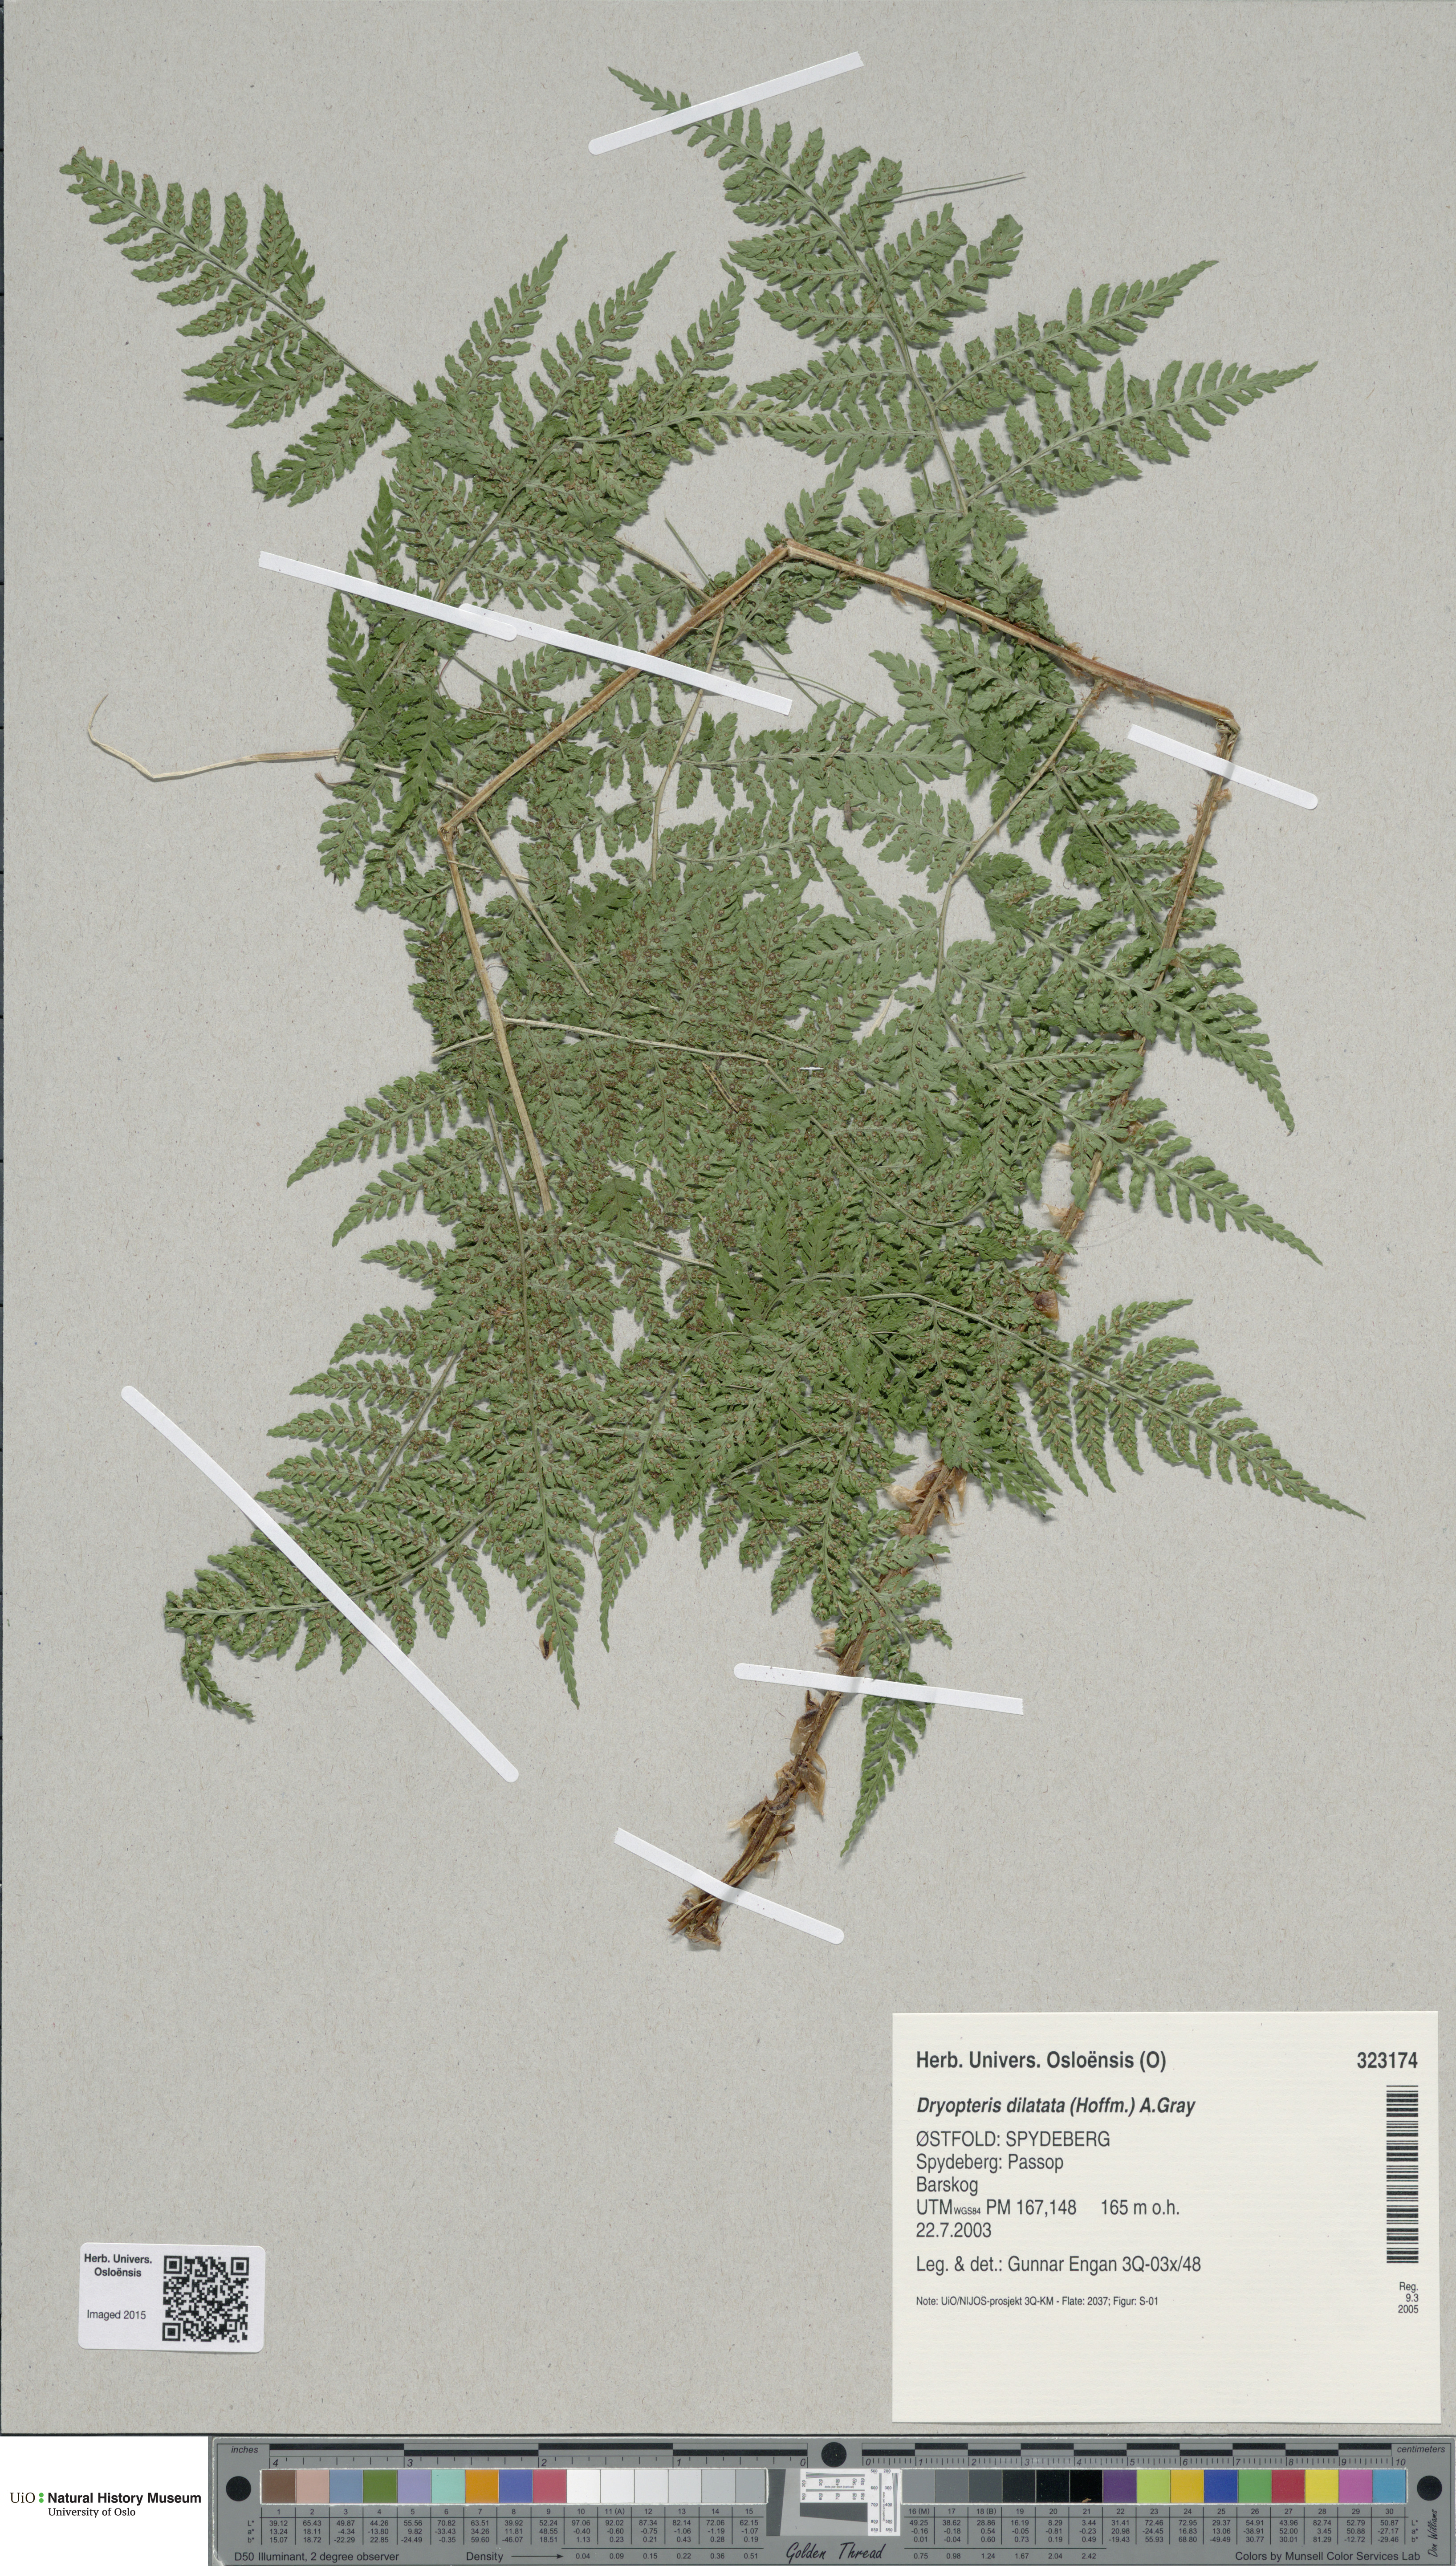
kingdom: Plantae
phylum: Tracheophyta
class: Polypodiopsida
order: Polypodiales
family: Dryopteridaceae
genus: Dryopteris
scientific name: Dryopteris dilatata
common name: Broad buckler-fern
